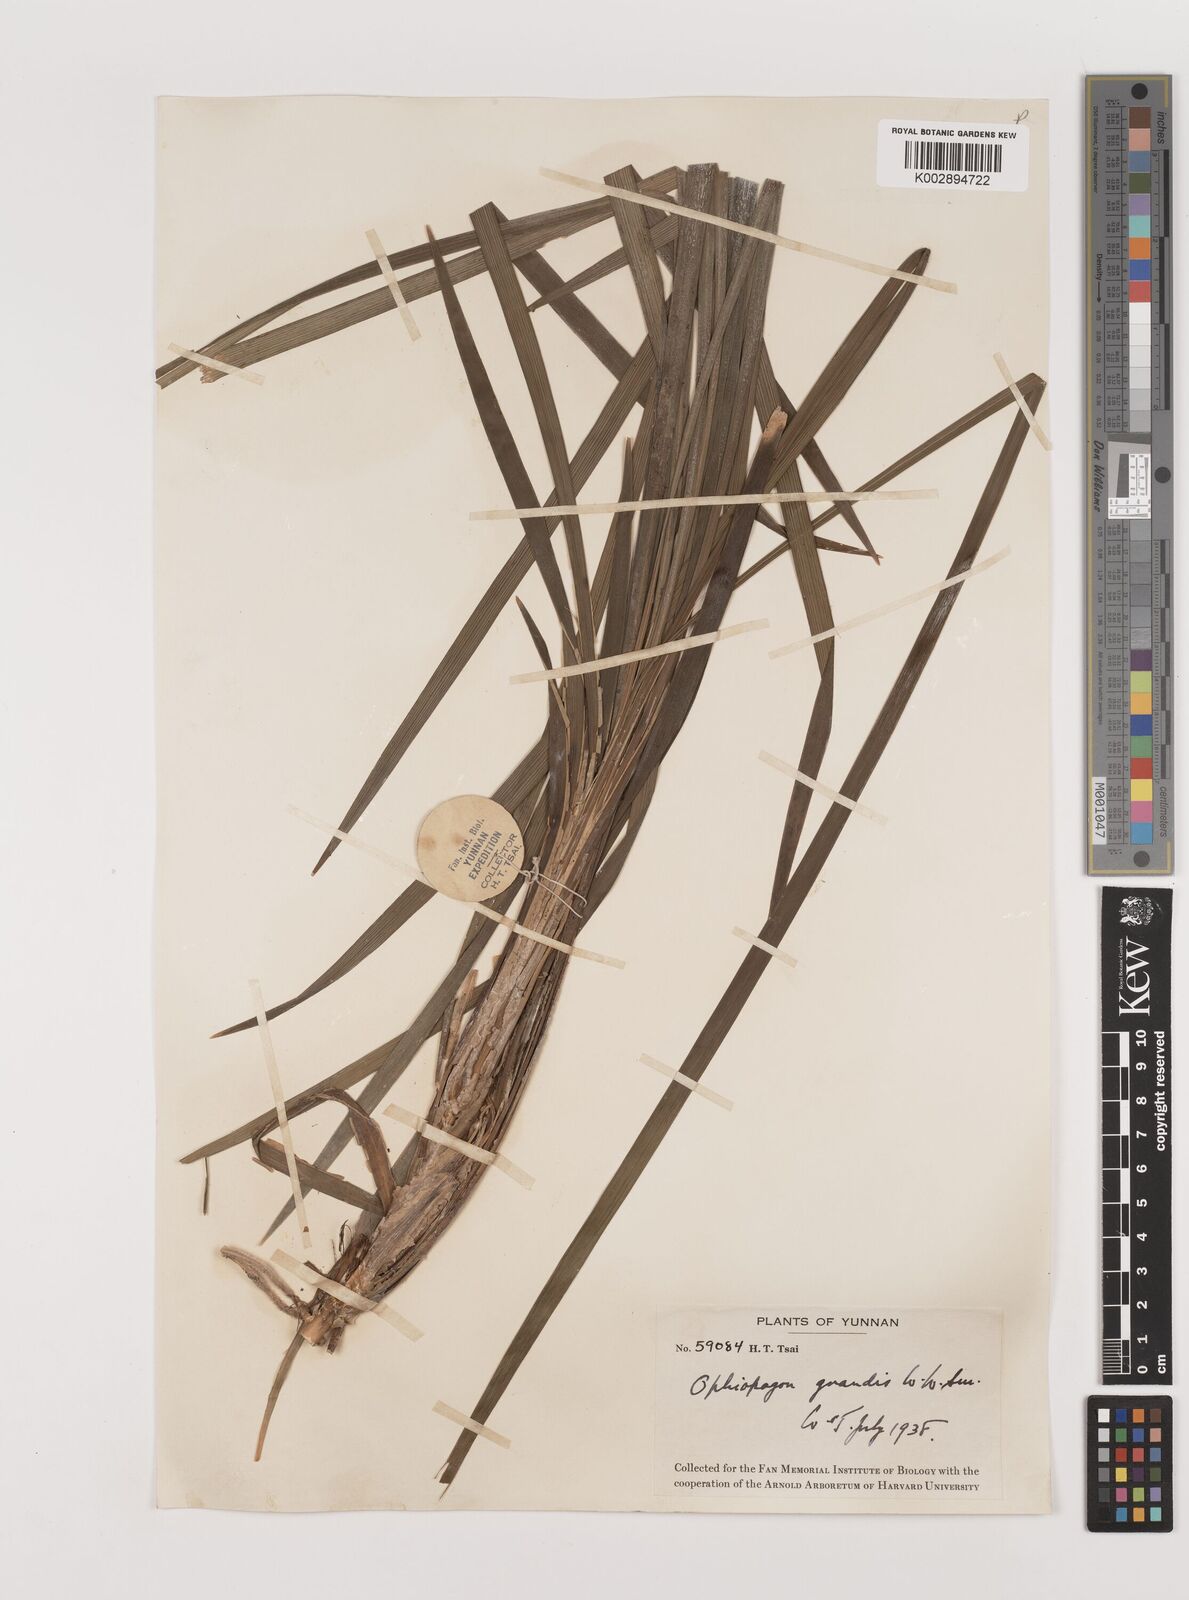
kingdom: Plantae
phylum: Tracheophyta
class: Liliopsida
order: Asparagales
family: Asparagaceae
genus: Ophiopogon
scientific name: Ophiopogon grandis
